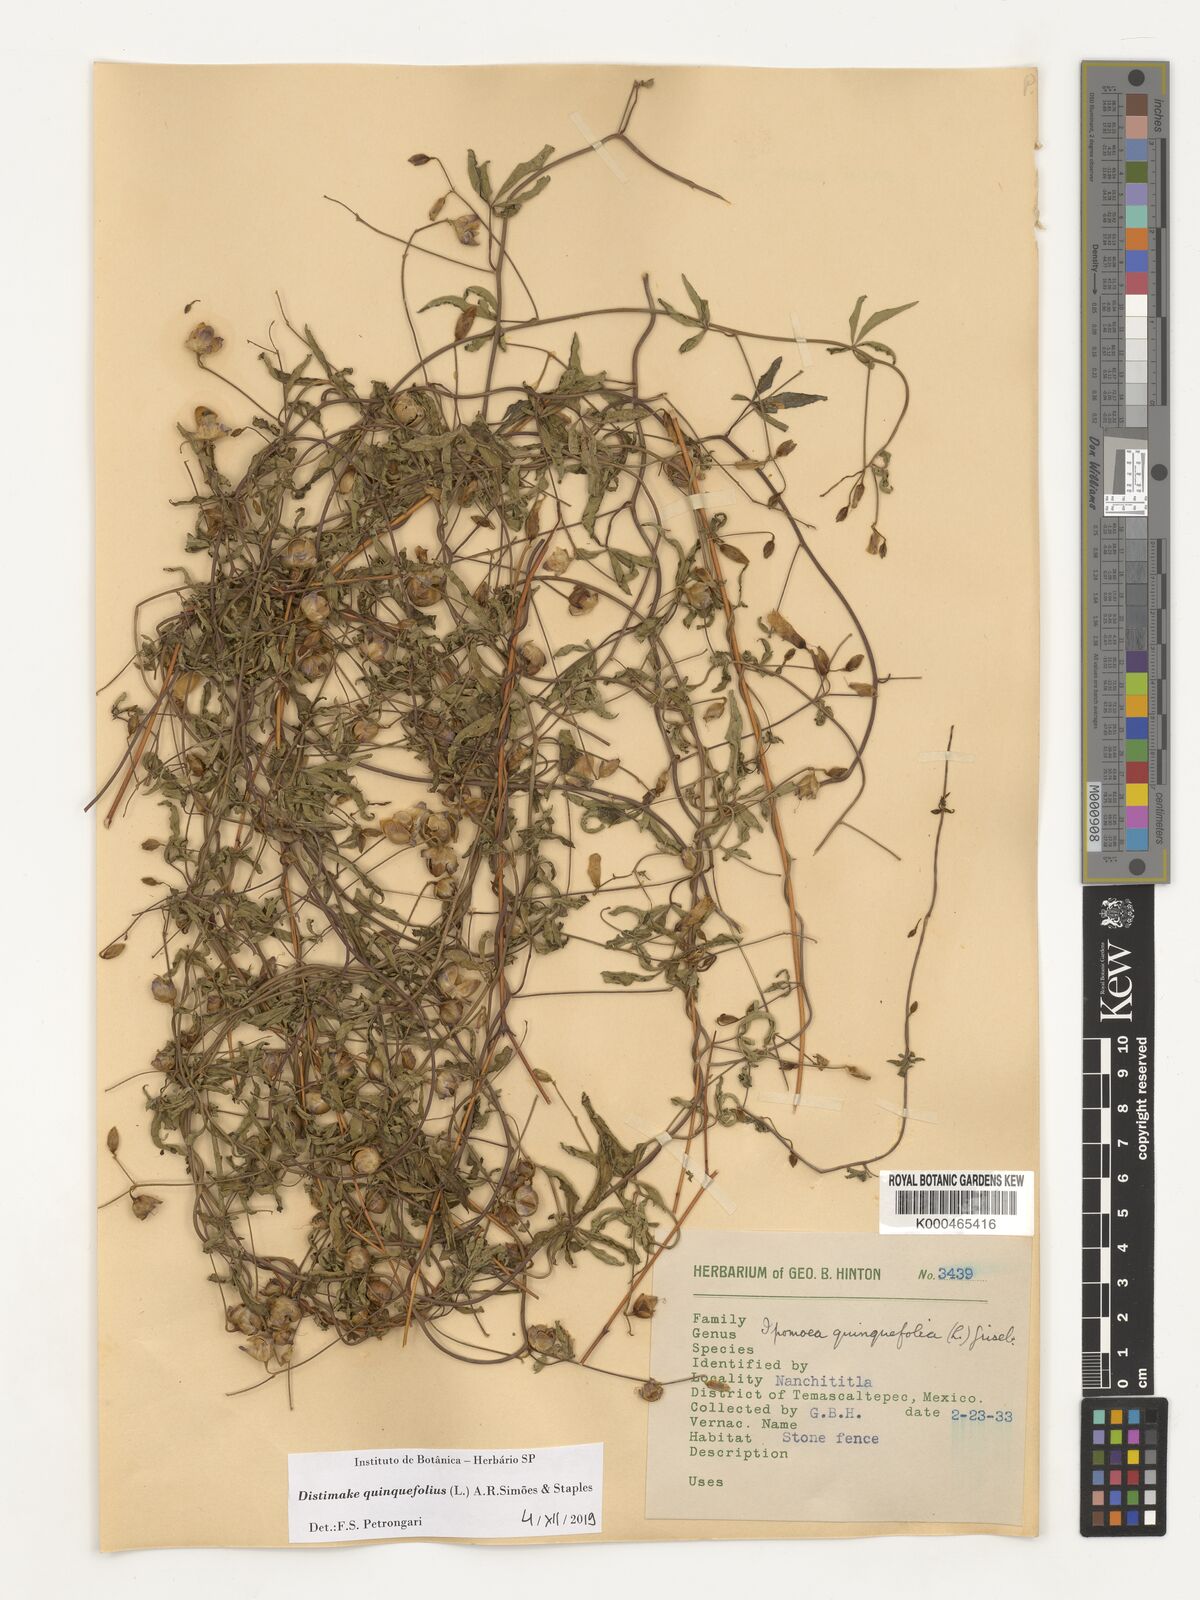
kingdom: Plantae
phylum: Tracheophyta
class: Magnoliopsida
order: Solanales
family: Convolvulaceae
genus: Distimake
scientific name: Distimake quinquefolius
